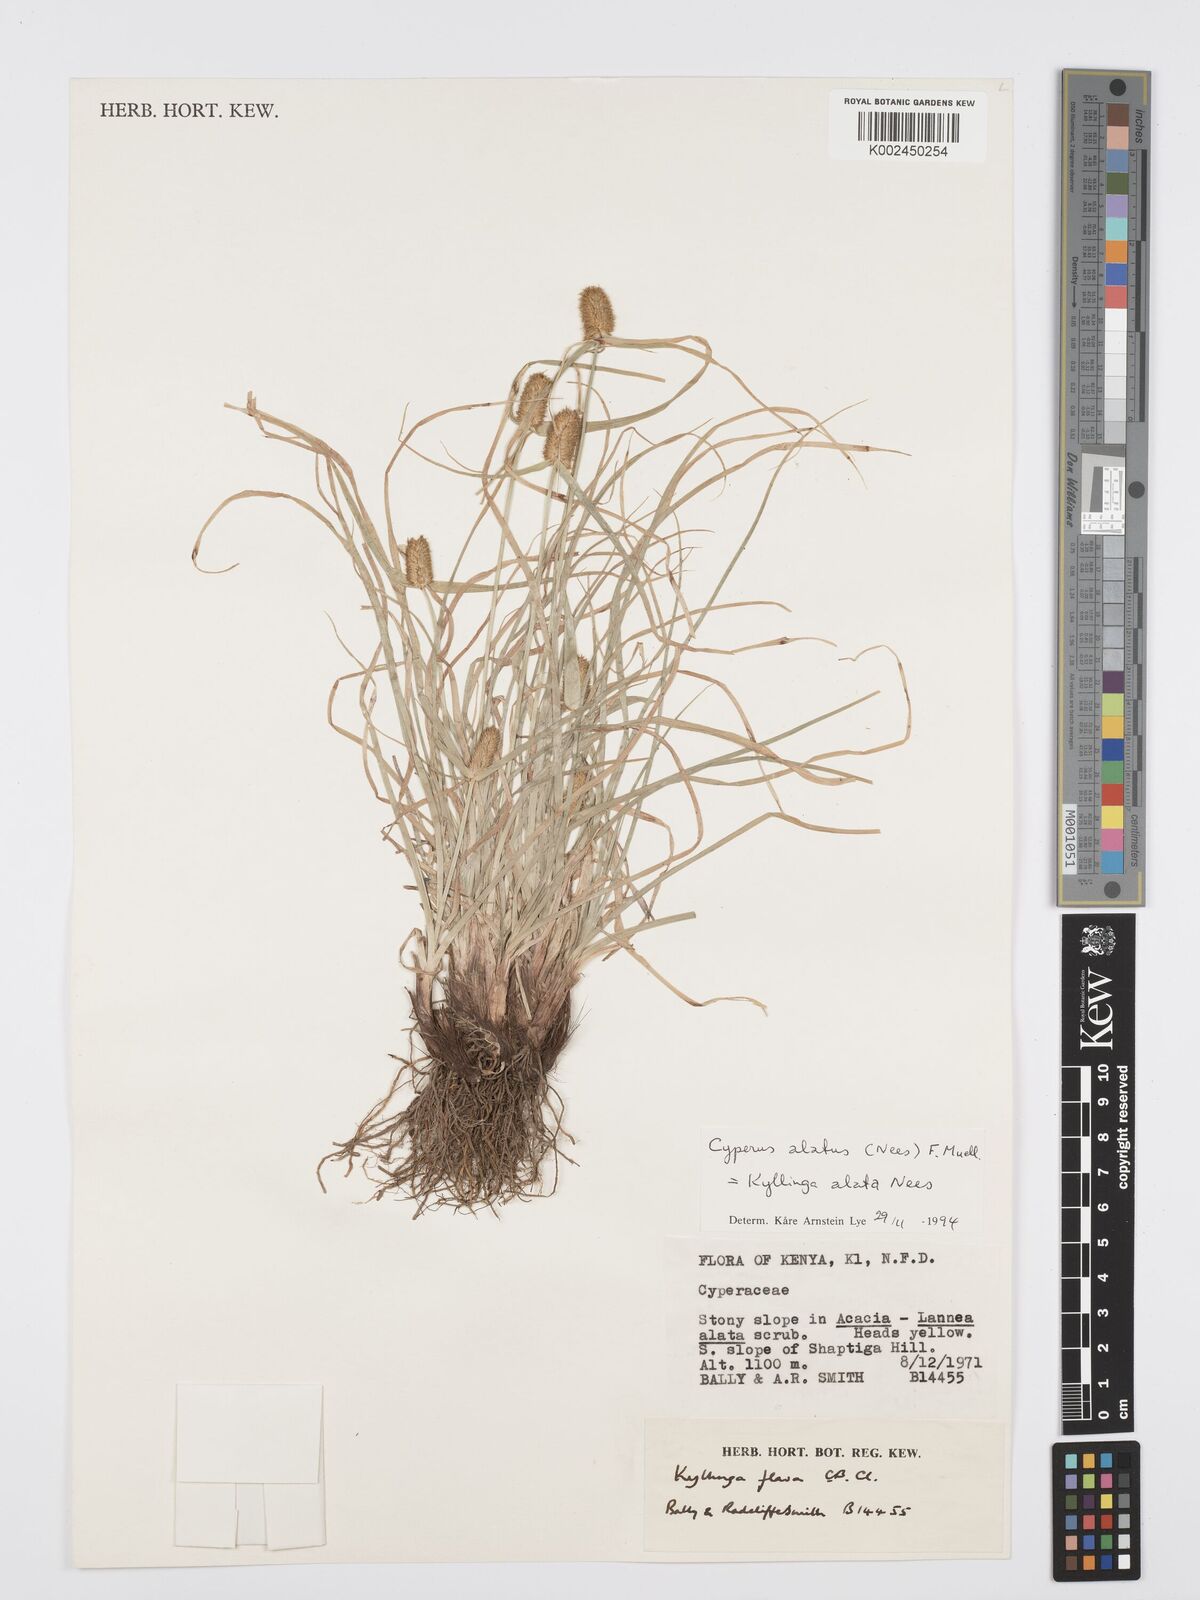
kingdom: Plantae
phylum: Tracheophyta
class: Liliopsida
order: Poales
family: Cyperaceae
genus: Cyperus
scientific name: Cyperus
